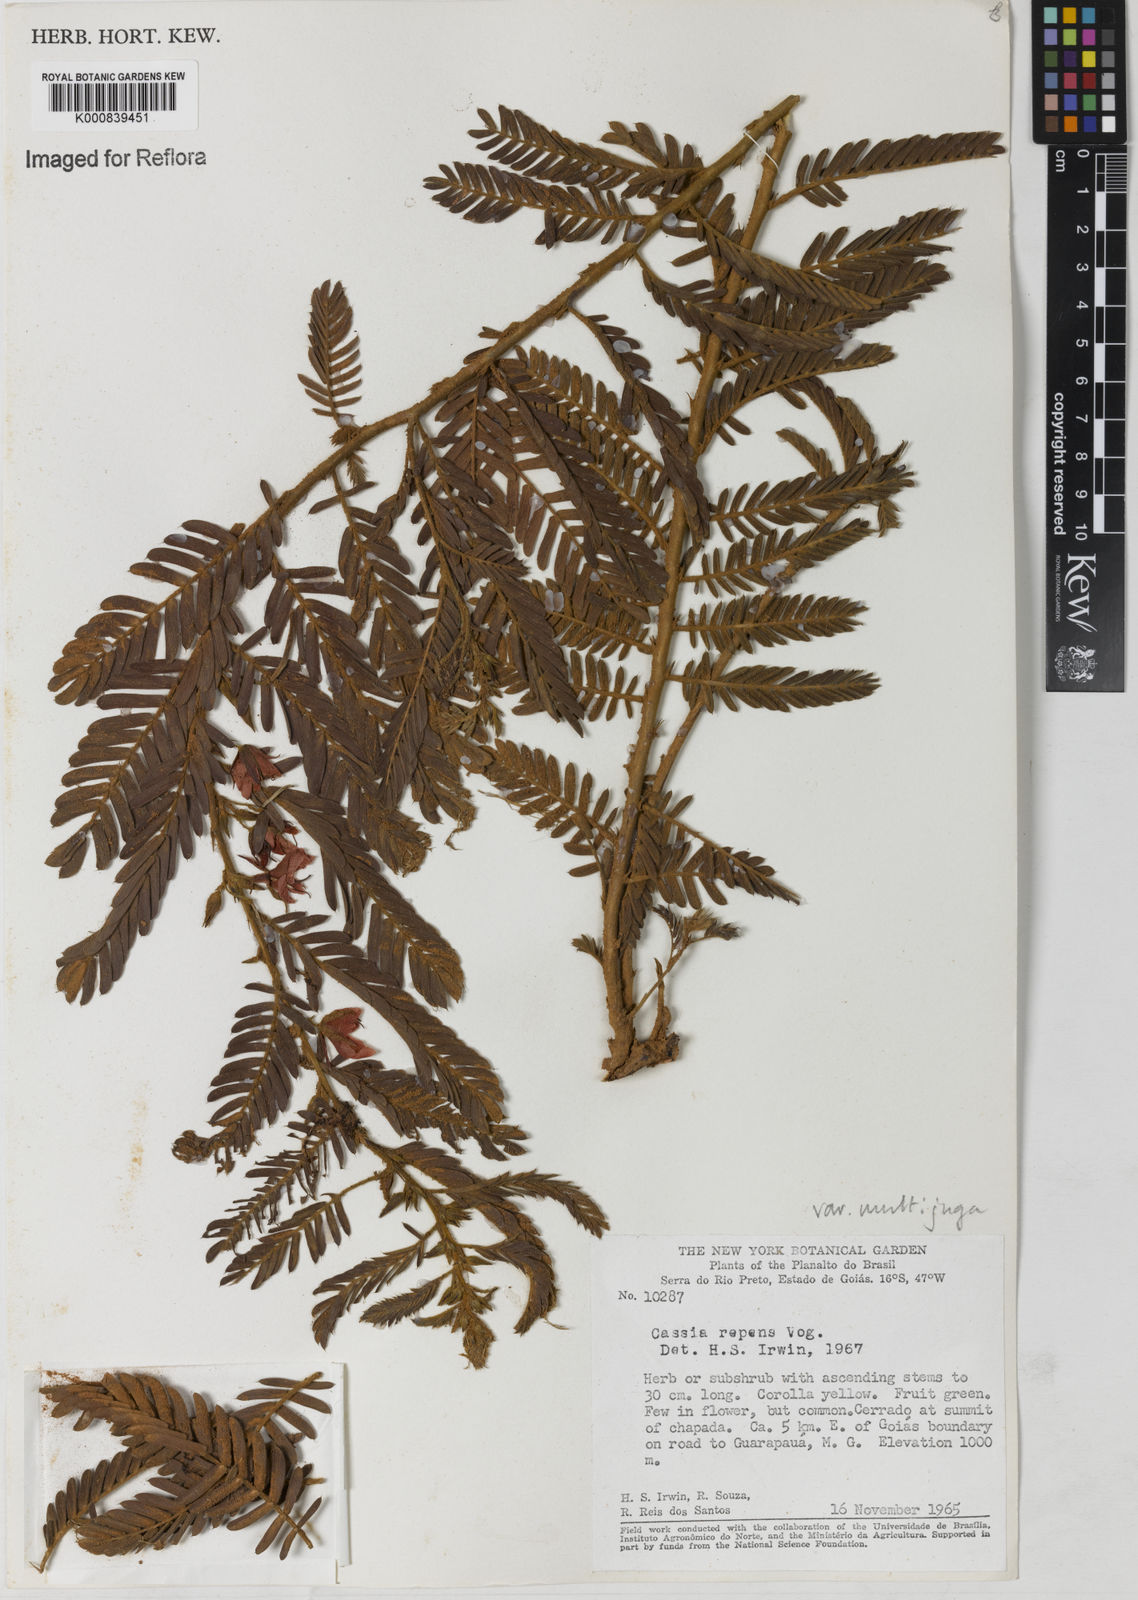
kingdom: Plantae
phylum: Tracheophyta
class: Magnoliopsida
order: Fabales
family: Fabaceae
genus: Chamaecrista
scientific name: Chamaecrista repens
